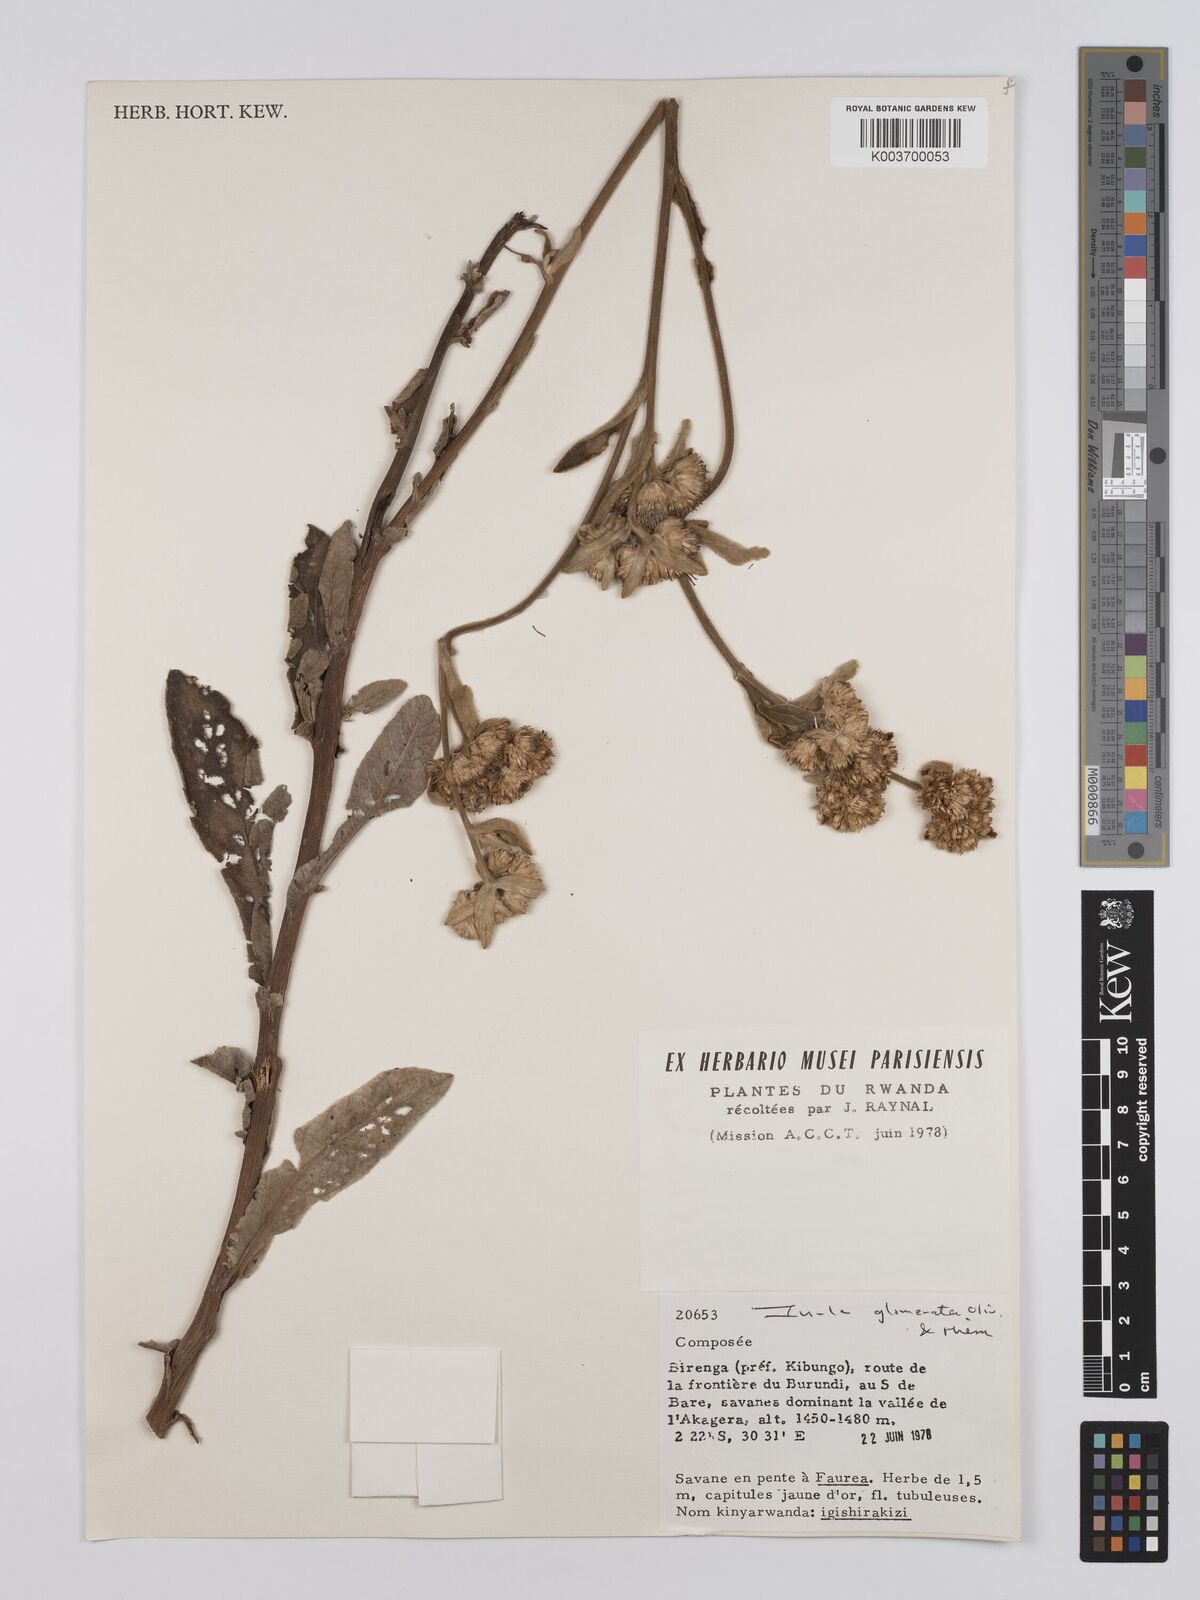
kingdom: Plantae
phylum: Tracheophyta
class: Magnoliopsida
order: Asterales
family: Asteraceae
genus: Inula
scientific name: Inula glomerata
